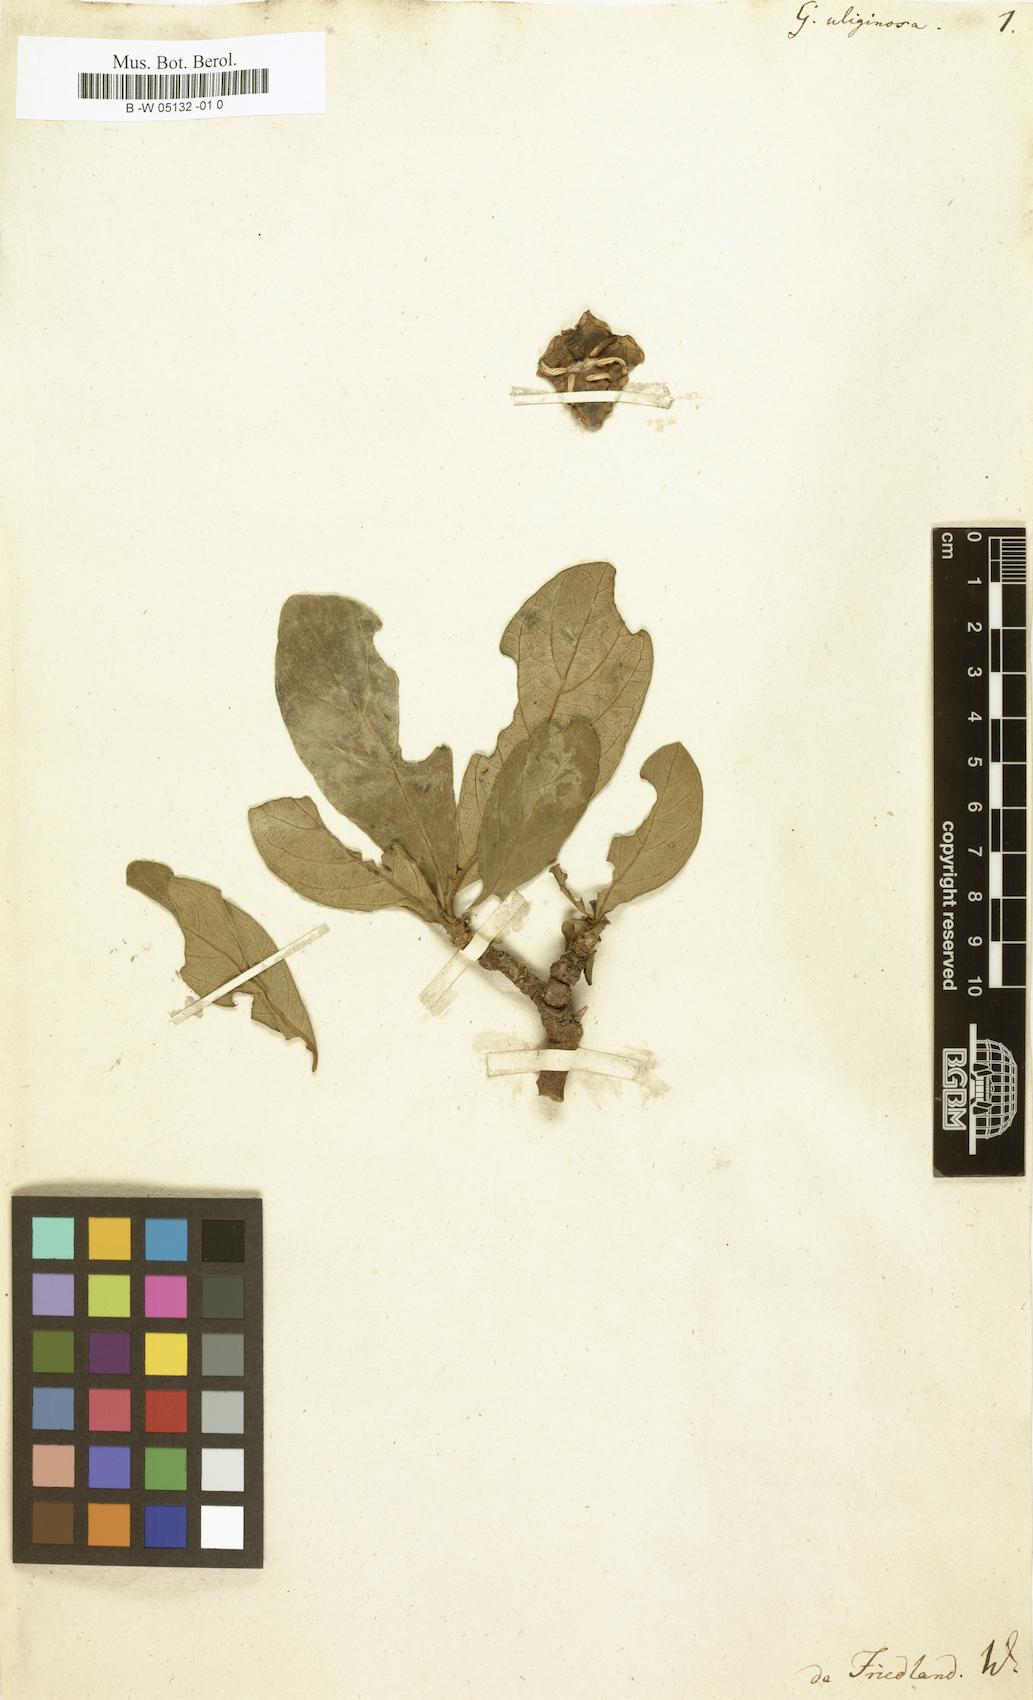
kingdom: Plantae
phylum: Tracheophyta
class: Magnoliopsida
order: Gentianales
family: Rubiaceae
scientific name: Rubiaceae
